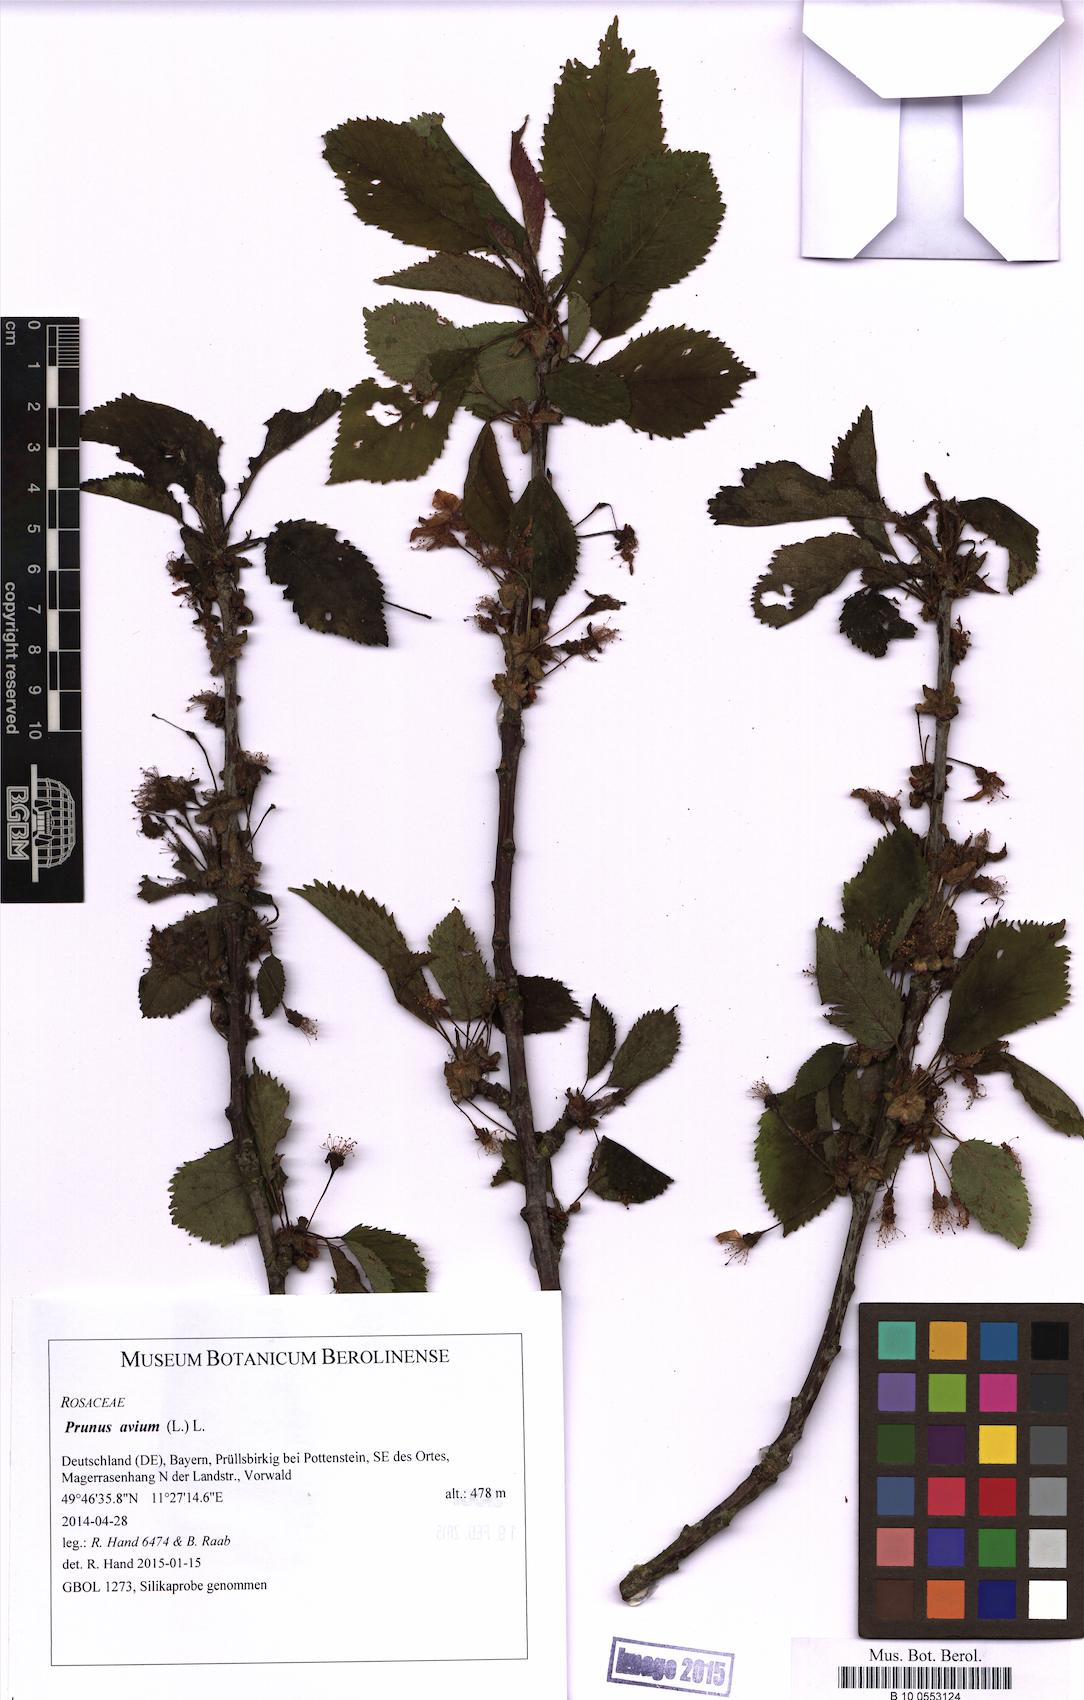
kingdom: Plantae
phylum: Tracheophyta
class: Magnoliopsida
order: Rosales
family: Rosaceae
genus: Prunus
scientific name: Prunus avium
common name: Sweet cherry
